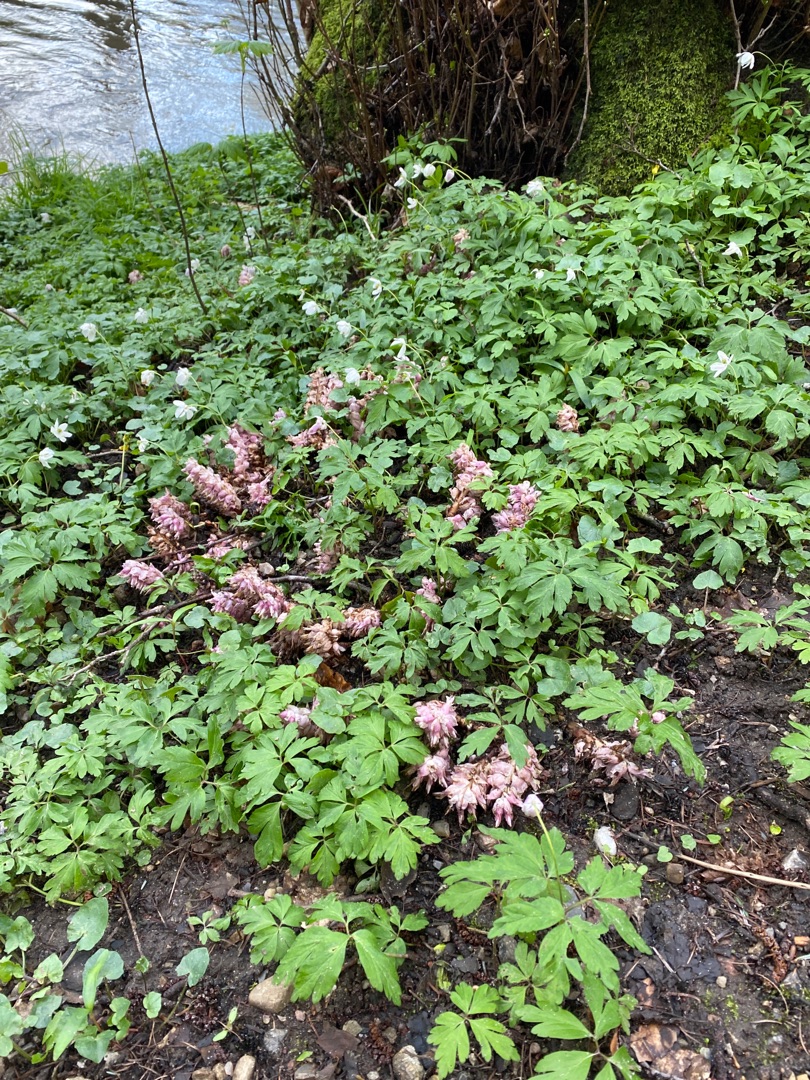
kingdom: Plantae
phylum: Tracheophyta
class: Magnoliopsida
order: Lamiales
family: Orobanchaceae
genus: Lathraea
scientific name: Lathraea squamaria
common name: Skælrod
